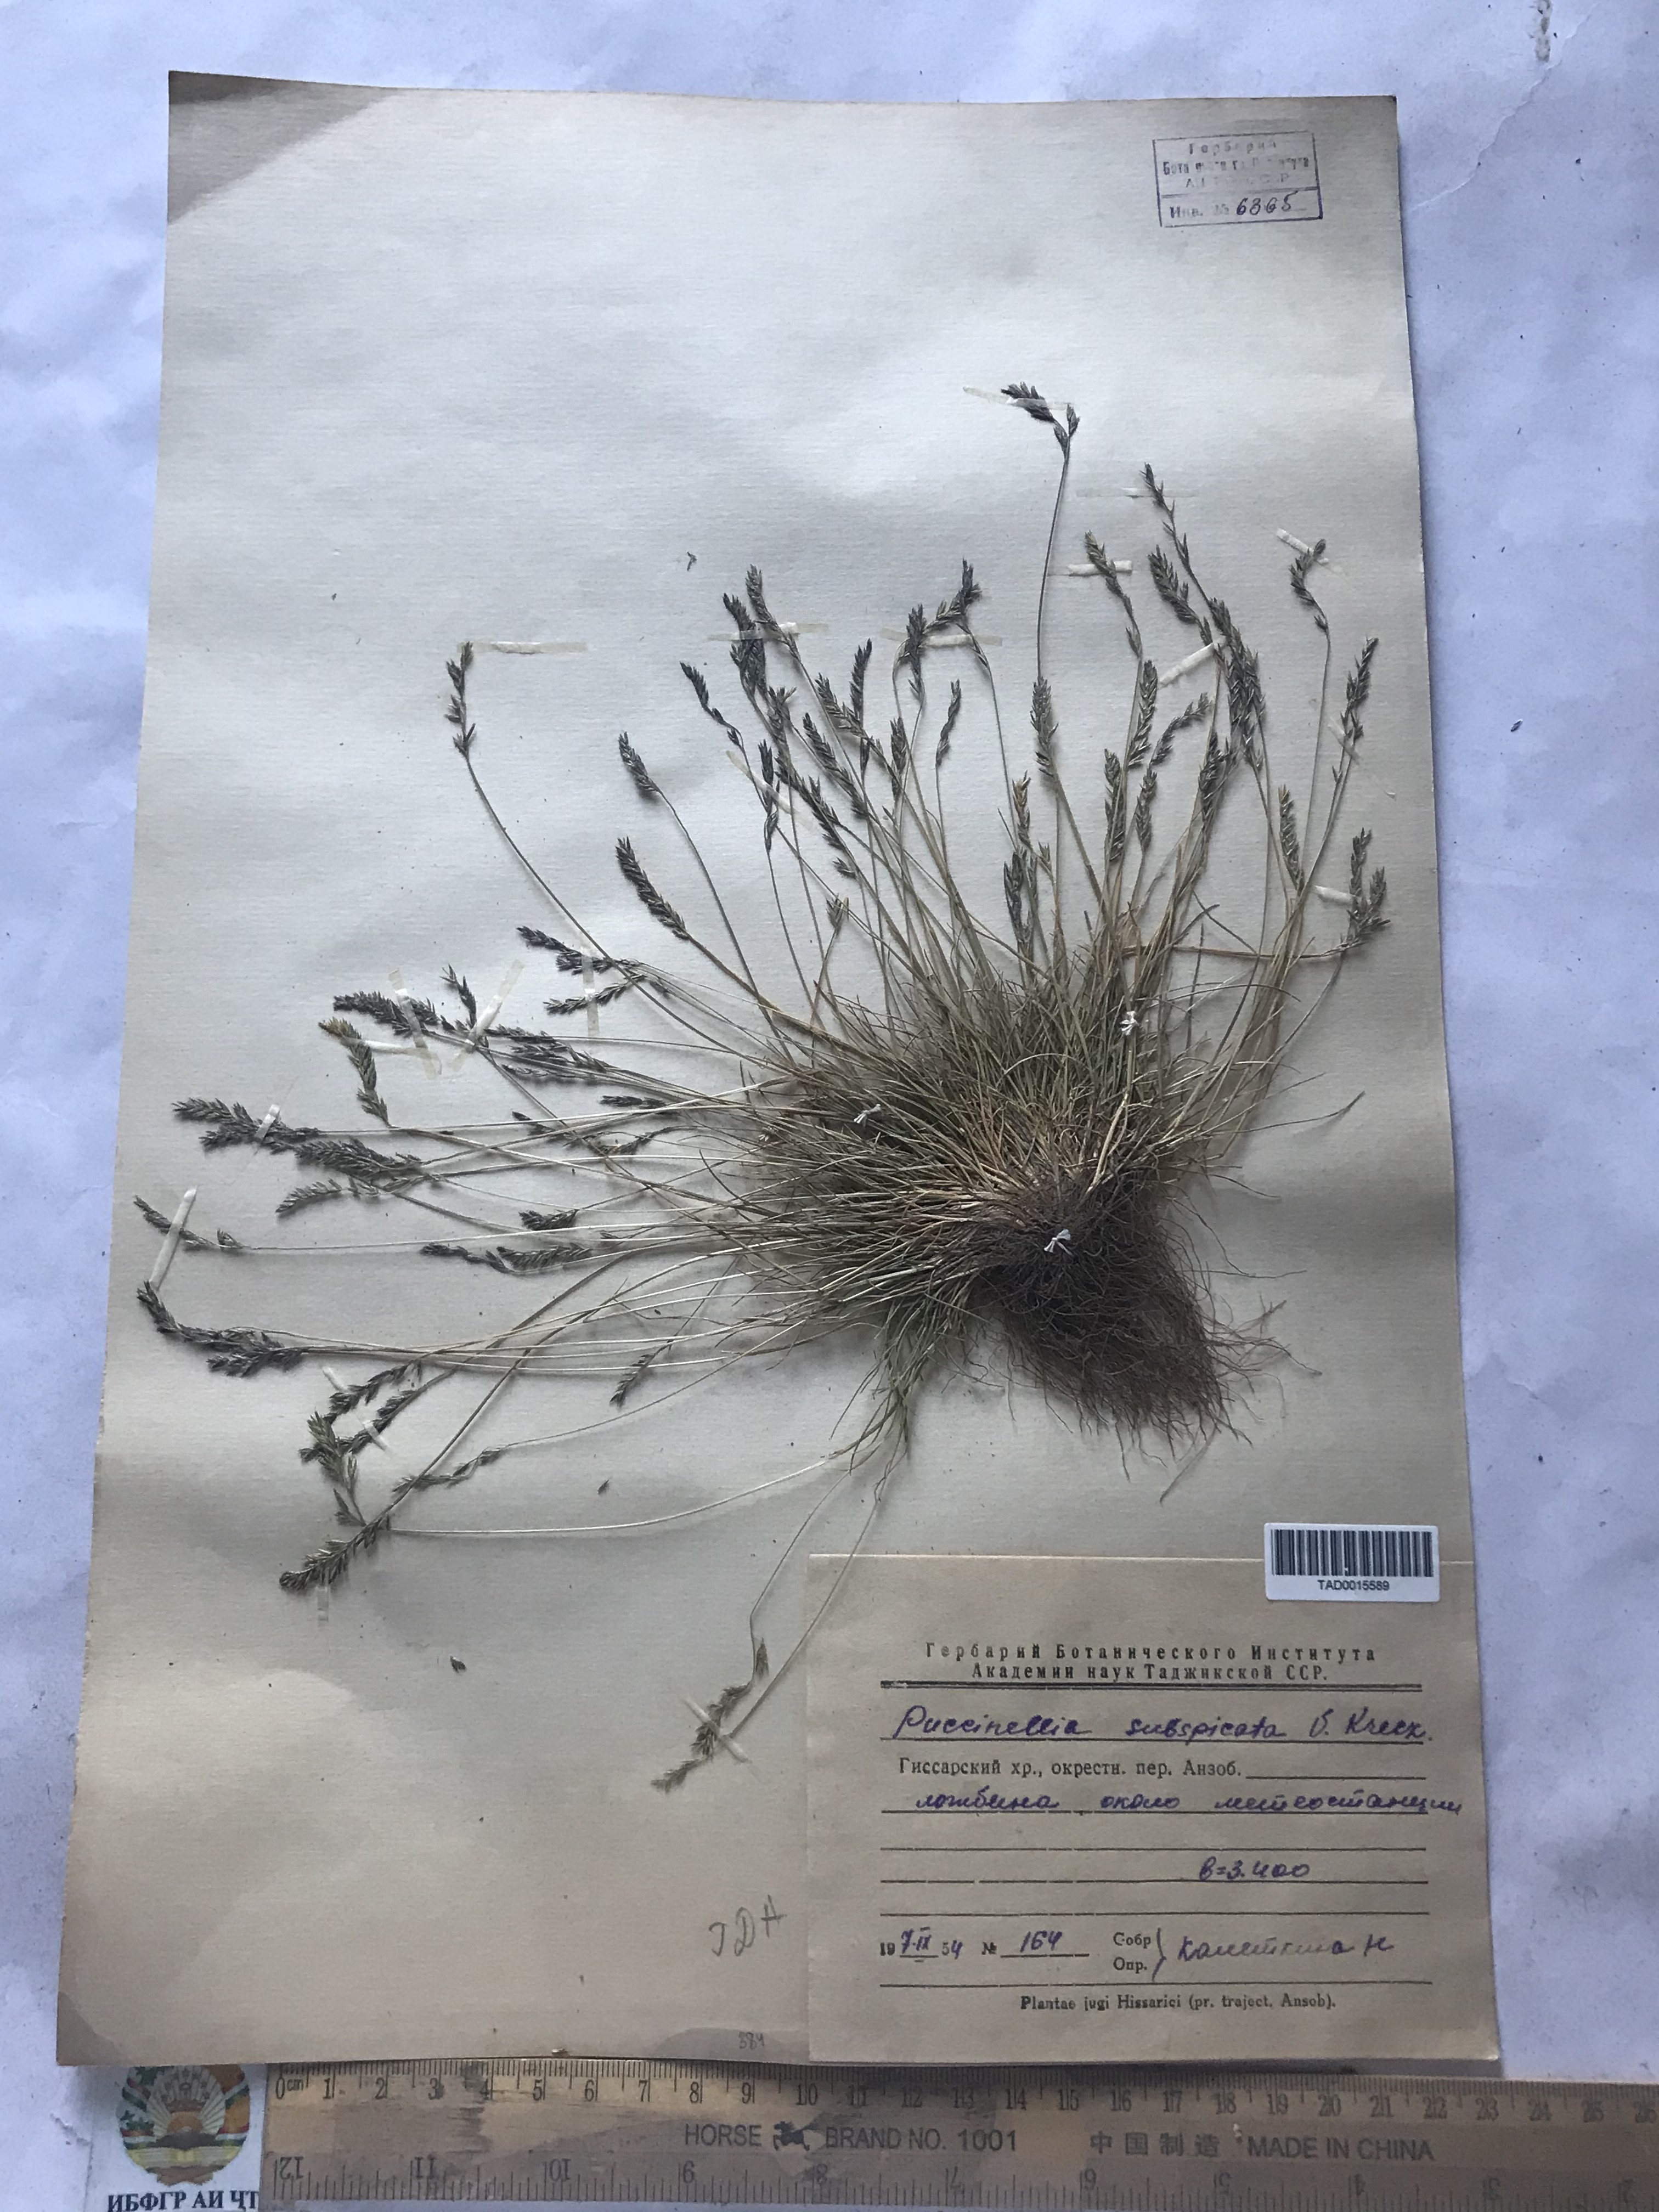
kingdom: Plantae
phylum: Tracheophyta
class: Liliopsida
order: Poales
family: Poaceae
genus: Puccinellia
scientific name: Puccinellia subspicata
